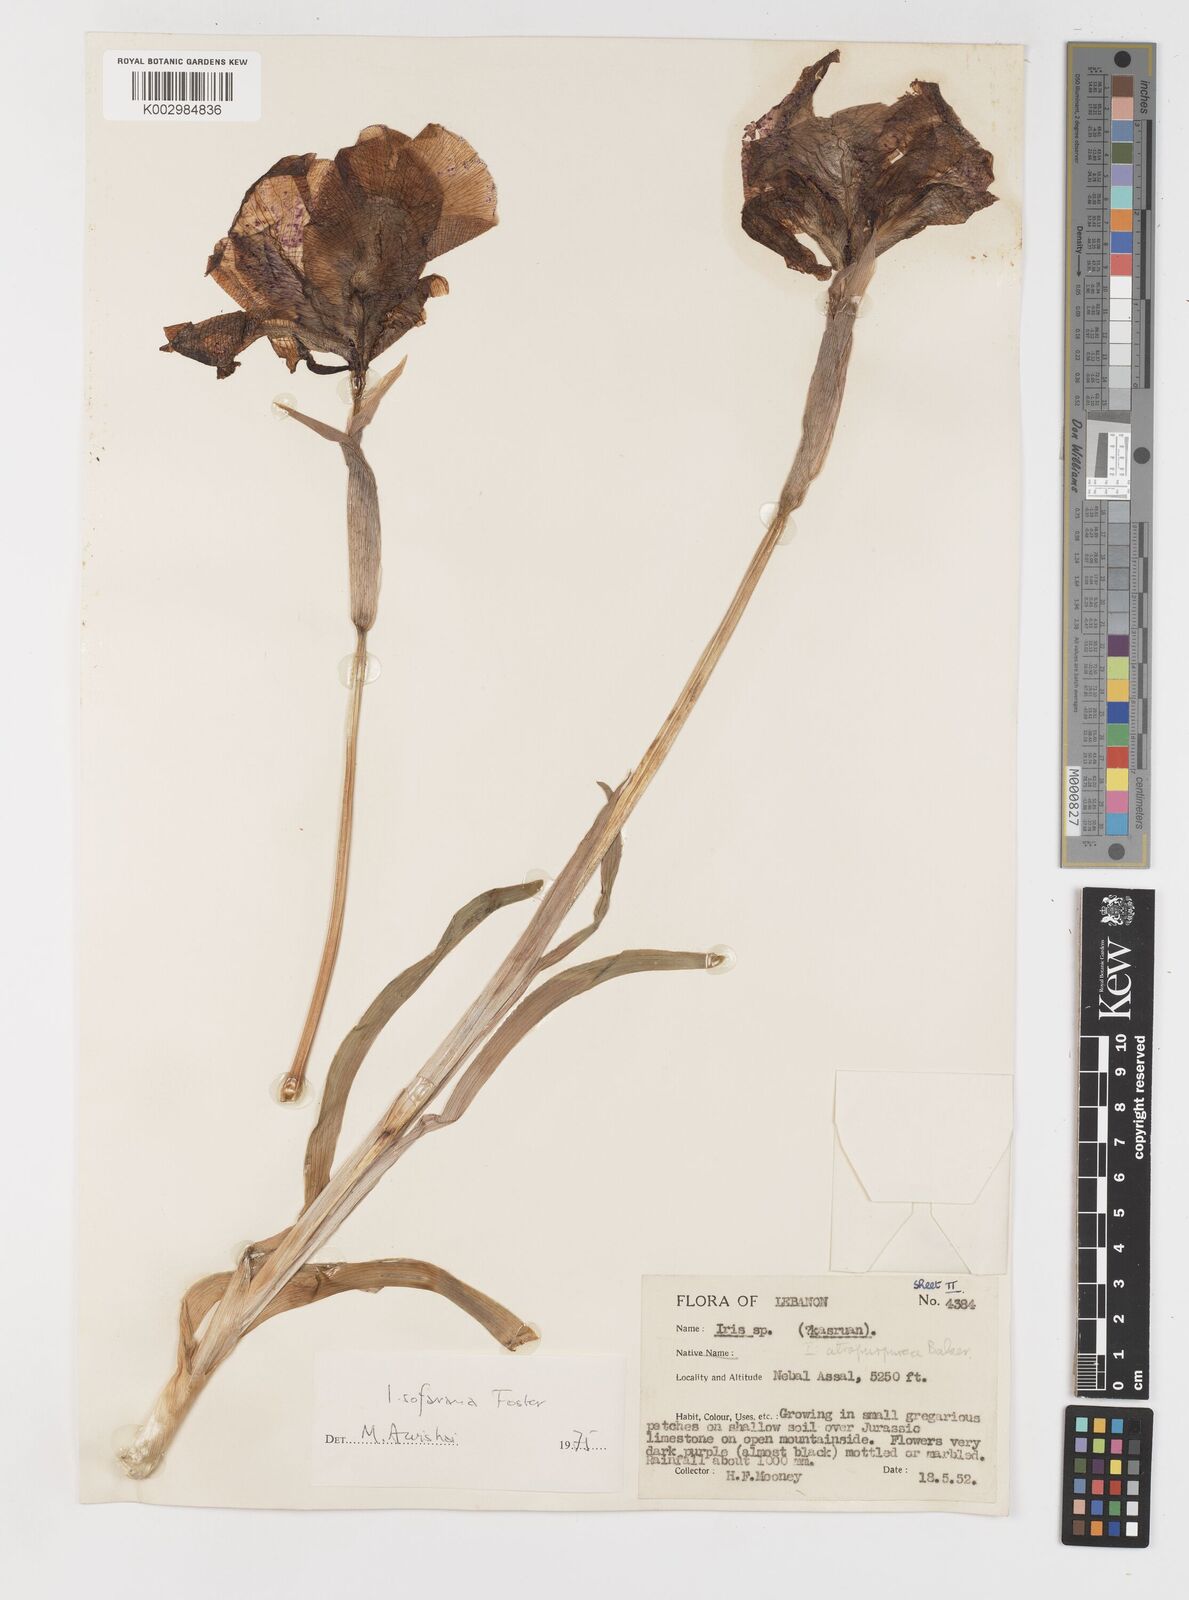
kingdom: Plantae
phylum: Tracheophyta
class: Liliopsida
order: Asparagales
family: Iridaceae
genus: Iris
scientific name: Iris susiana
